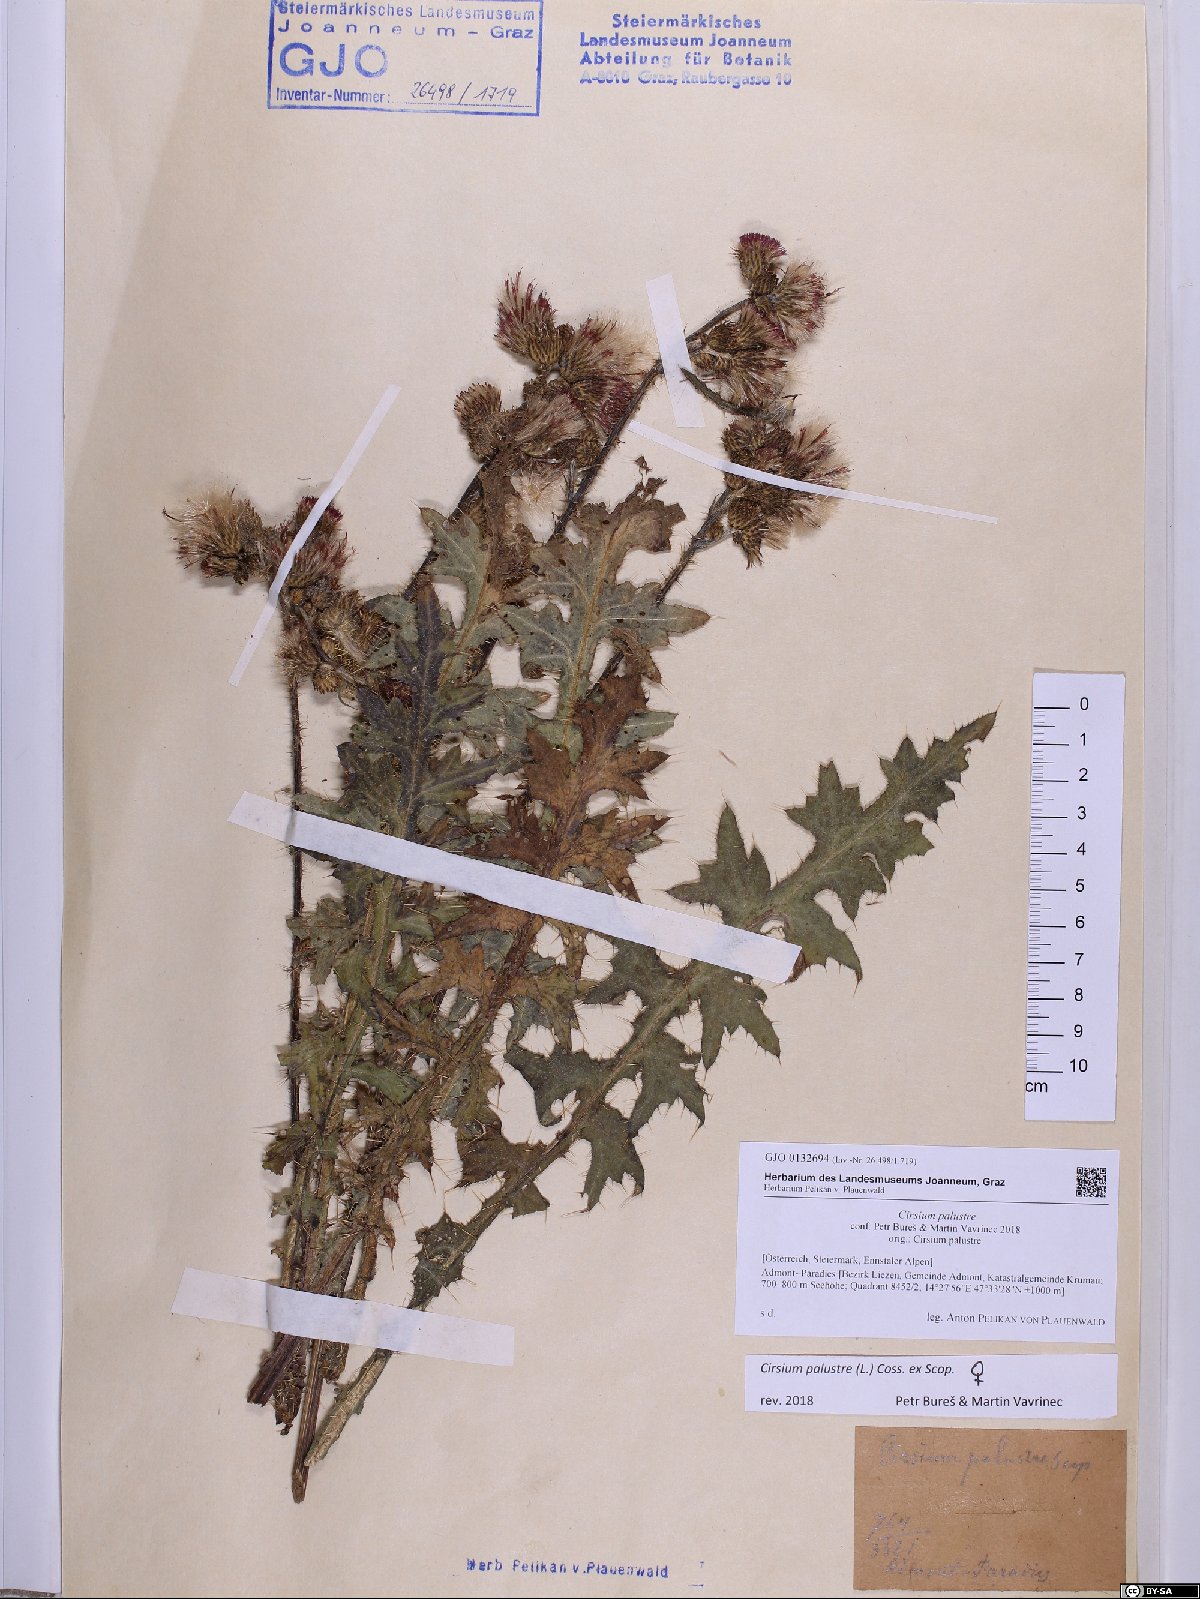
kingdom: Plantae
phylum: Tracheophyta
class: Magnoliopsida
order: Asterales
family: Asteraceae
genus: Cirsium
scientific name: Cirsium palustre
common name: Marsh thistle
